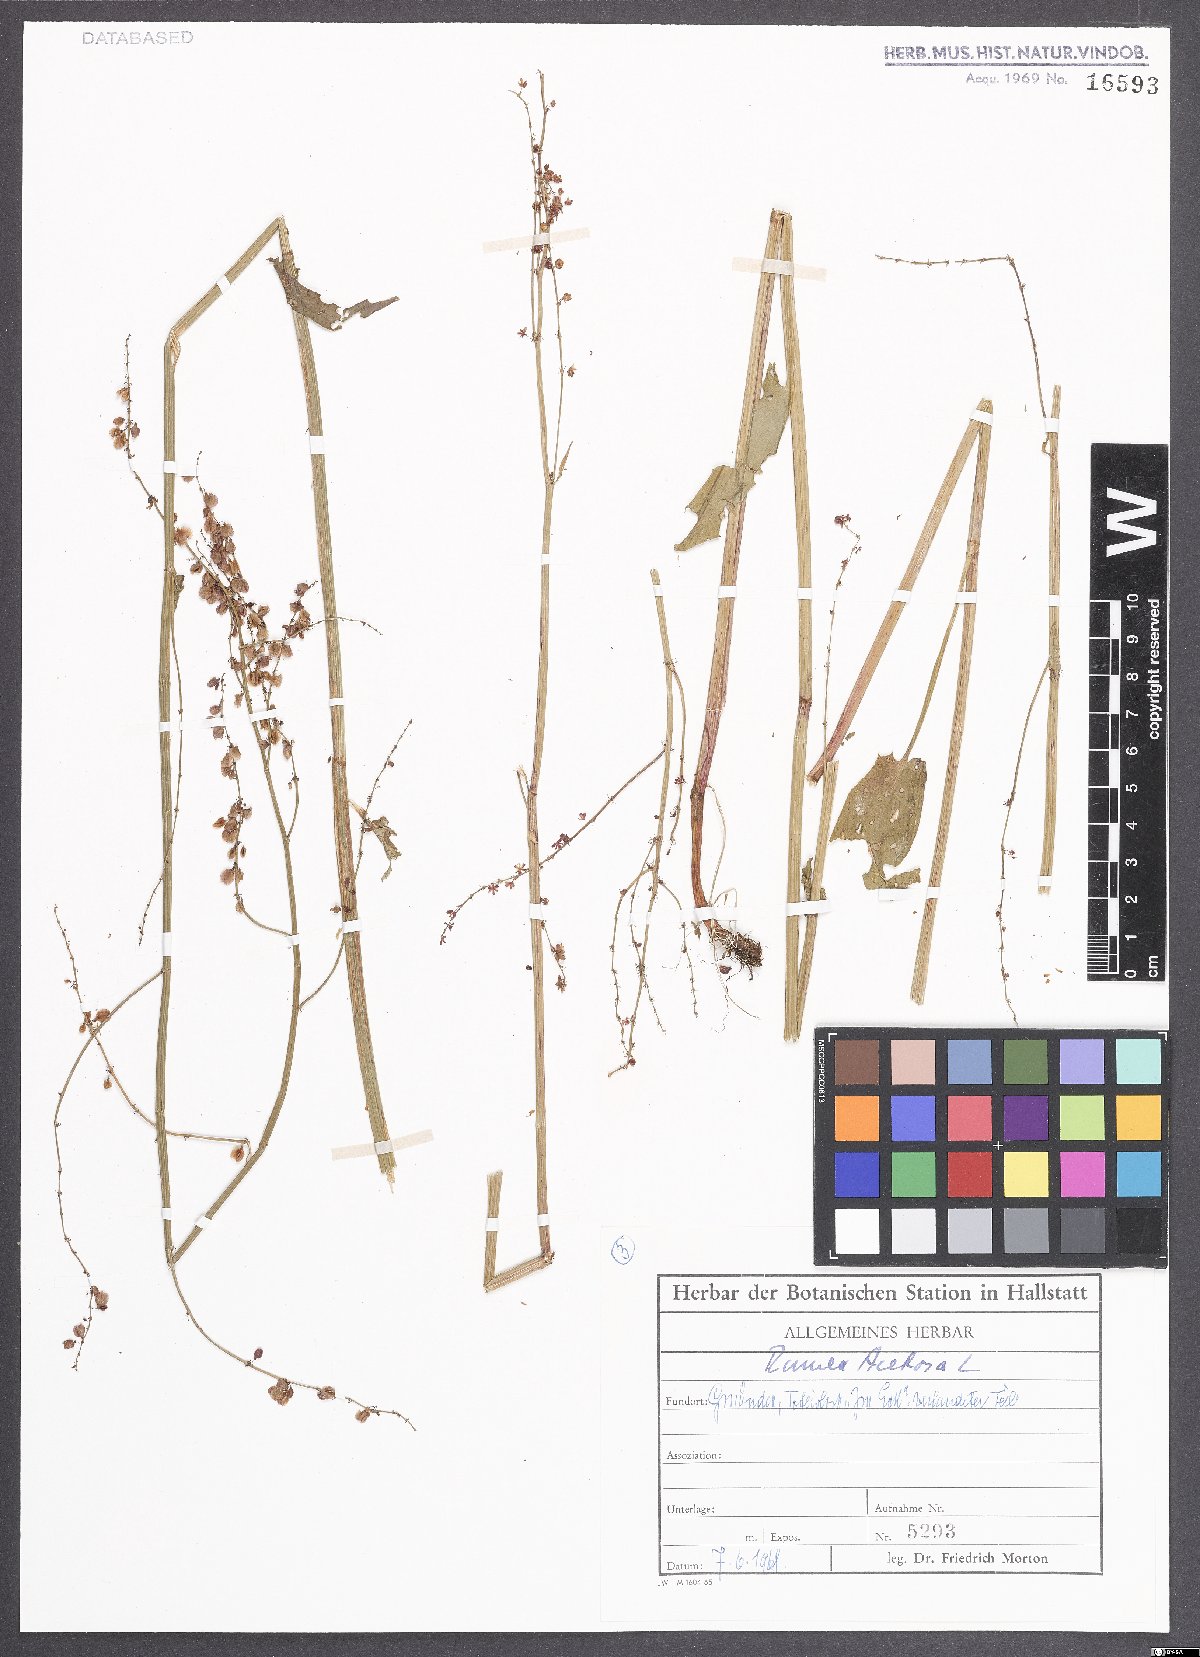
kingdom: Plantae
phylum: Tracheophyta
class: Magnoliopsida
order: Caryophyllales
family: Polygonaceae
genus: Rumex
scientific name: Rumex acetosa
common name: Garden sorrel
